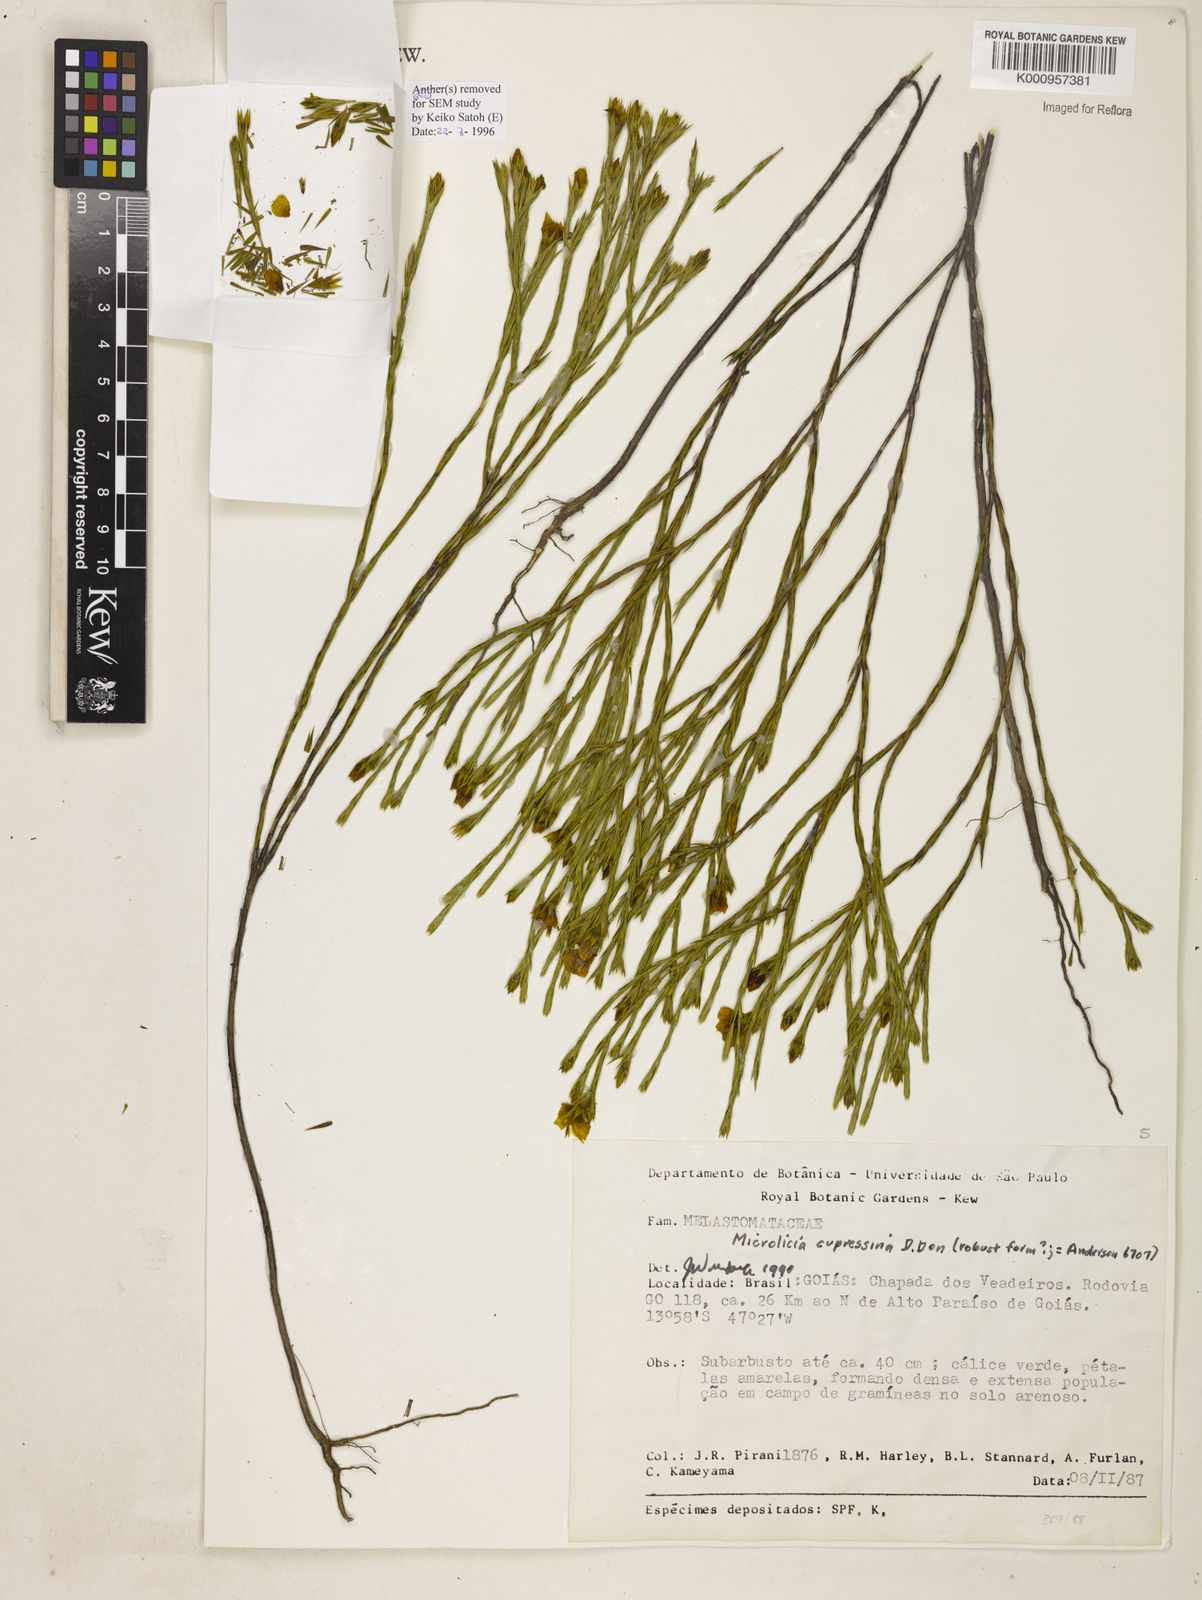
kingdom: Plantae
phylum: Tracheophyta
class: Magnoliopsida
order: Myrtales
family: Melastomataceae
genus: Microlicia
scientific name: Microlicia flavipetala
